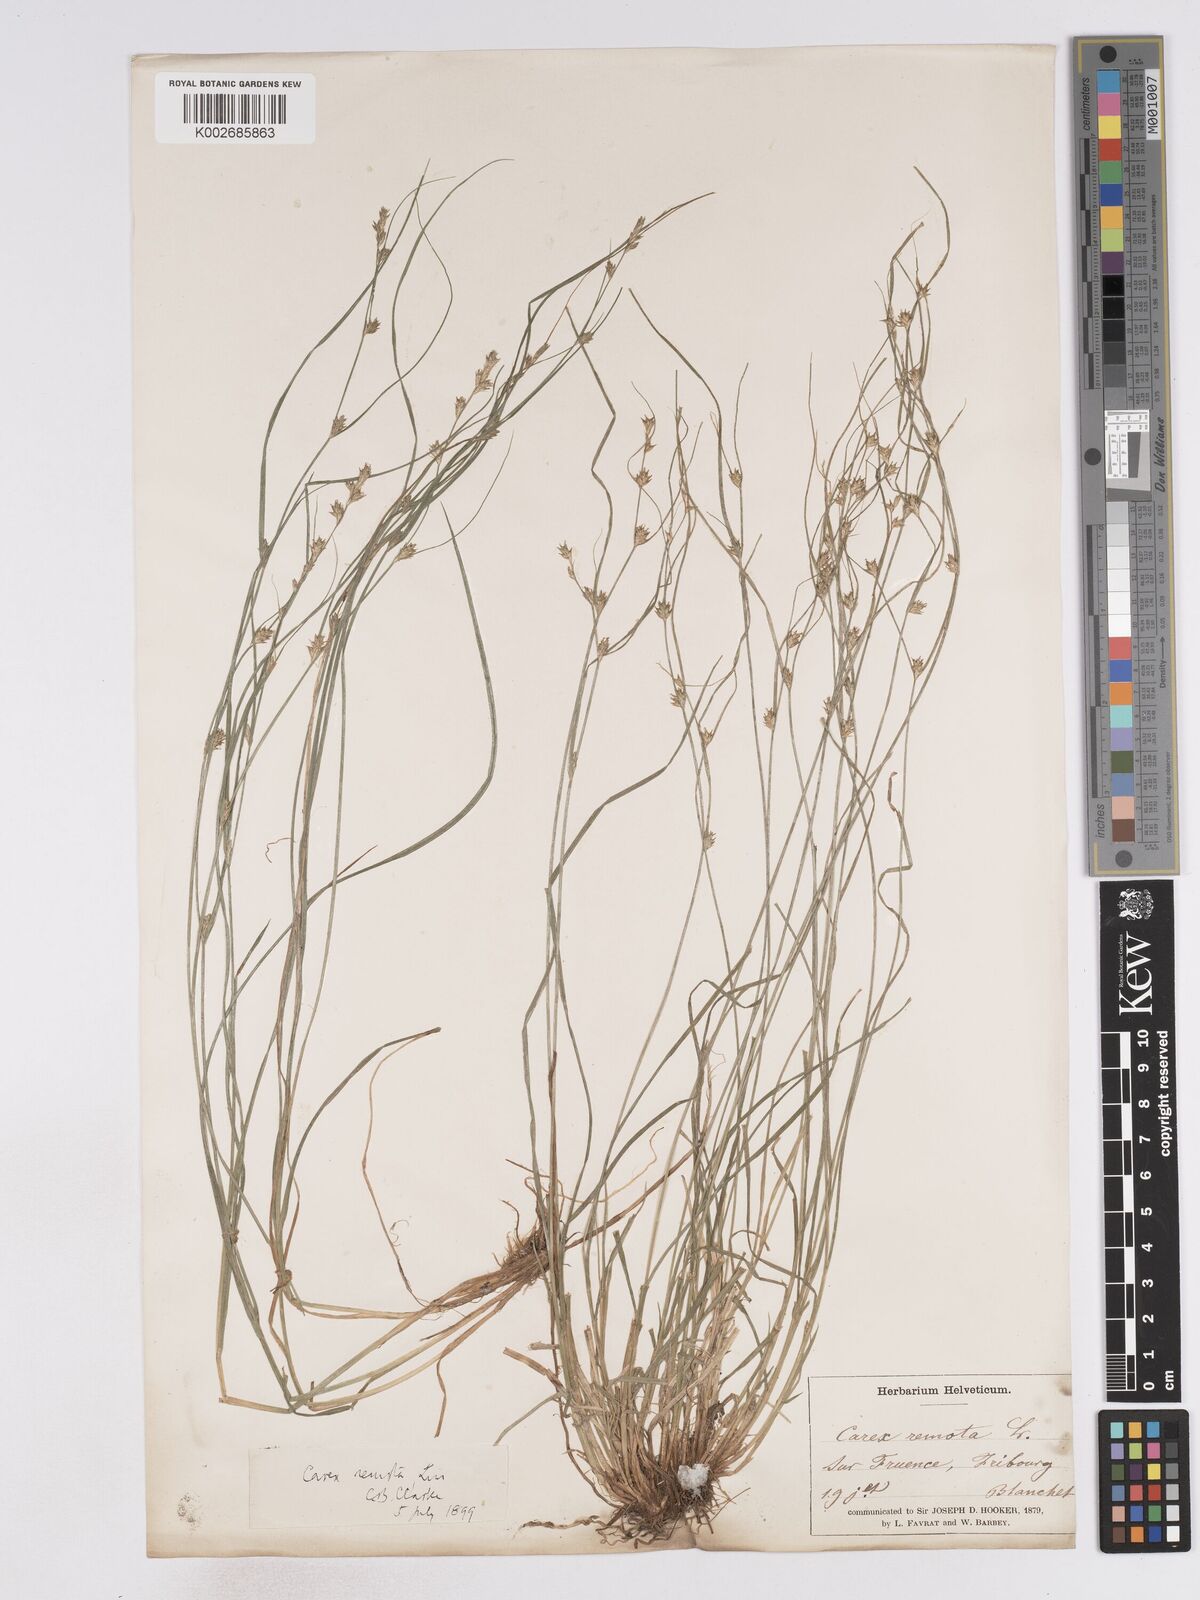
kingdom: Plantae
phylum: Tracheophyta
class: Liliopsida
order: Poales
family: Cyperaceae
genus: Carex
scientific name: Carex remota
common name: Remote sedge
